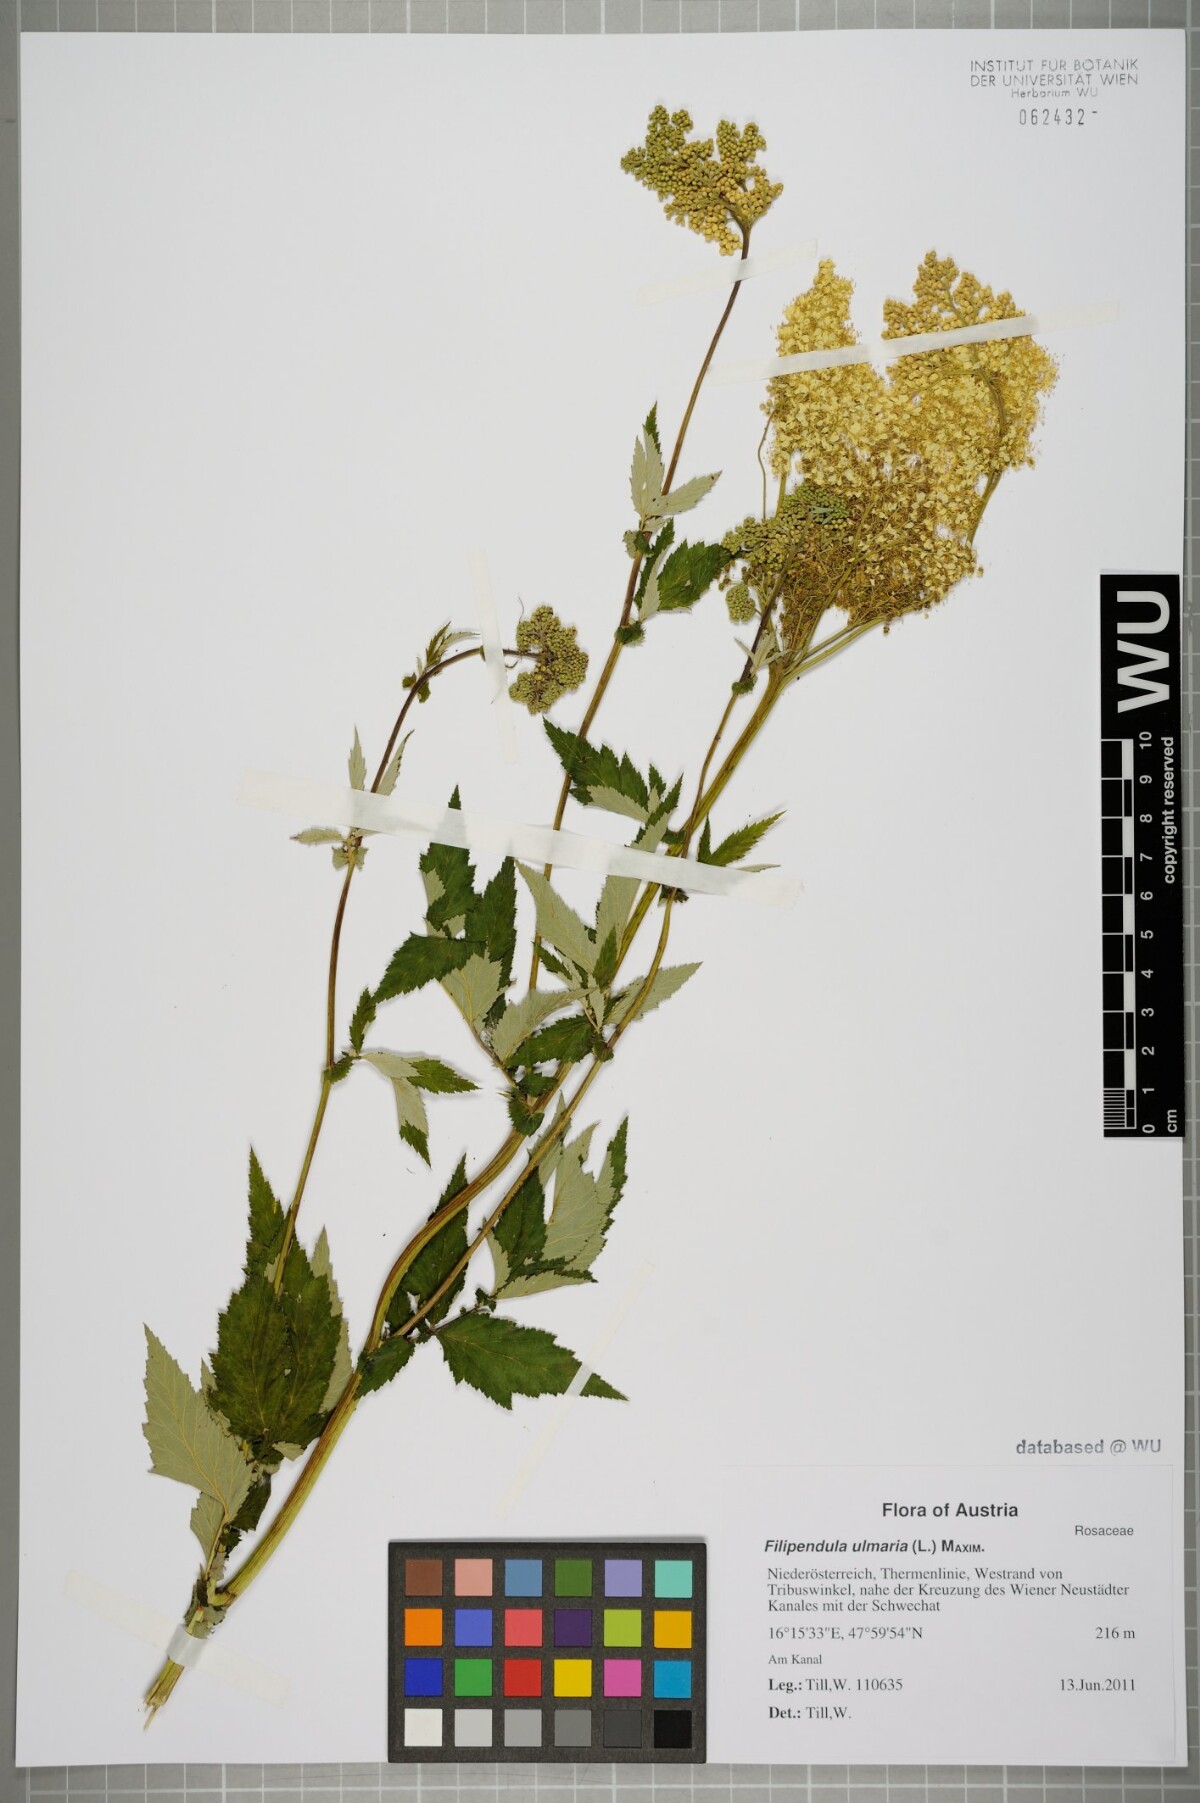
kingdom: Plantae
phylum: Tracheophyta
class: Magnoliopsida
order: Rosales
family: Rosaceae
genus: Filipendula
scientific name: Filipendula ulmaria
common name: Meadowsweet
